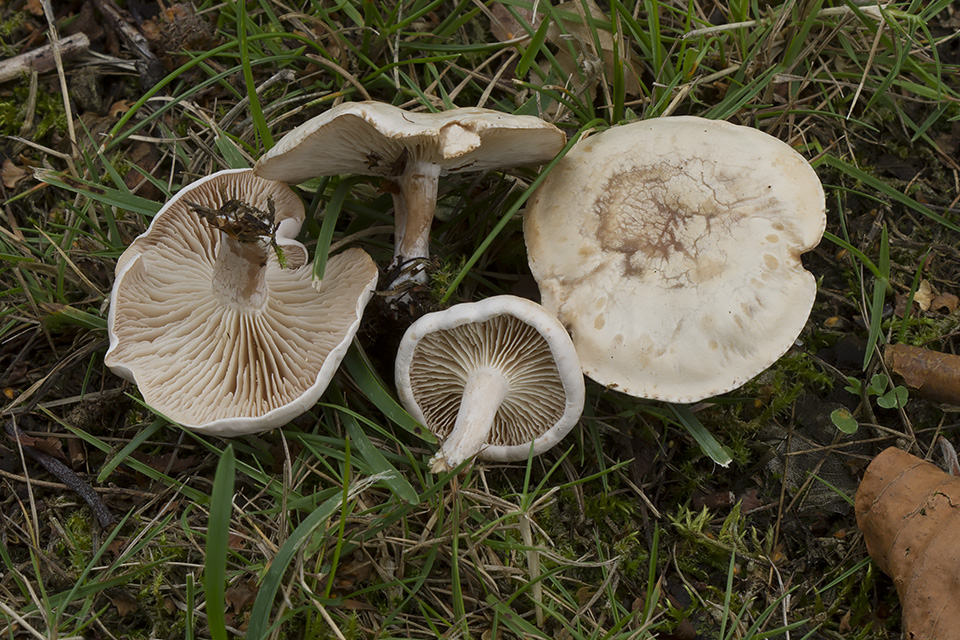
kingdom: Fungi
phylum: Basidiomycota
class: Agaricomycetes
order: Agaricales
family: Tricholomataceae
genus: Clitocybe
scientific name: Clitocybe rivulosa
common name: eng-tragthat
